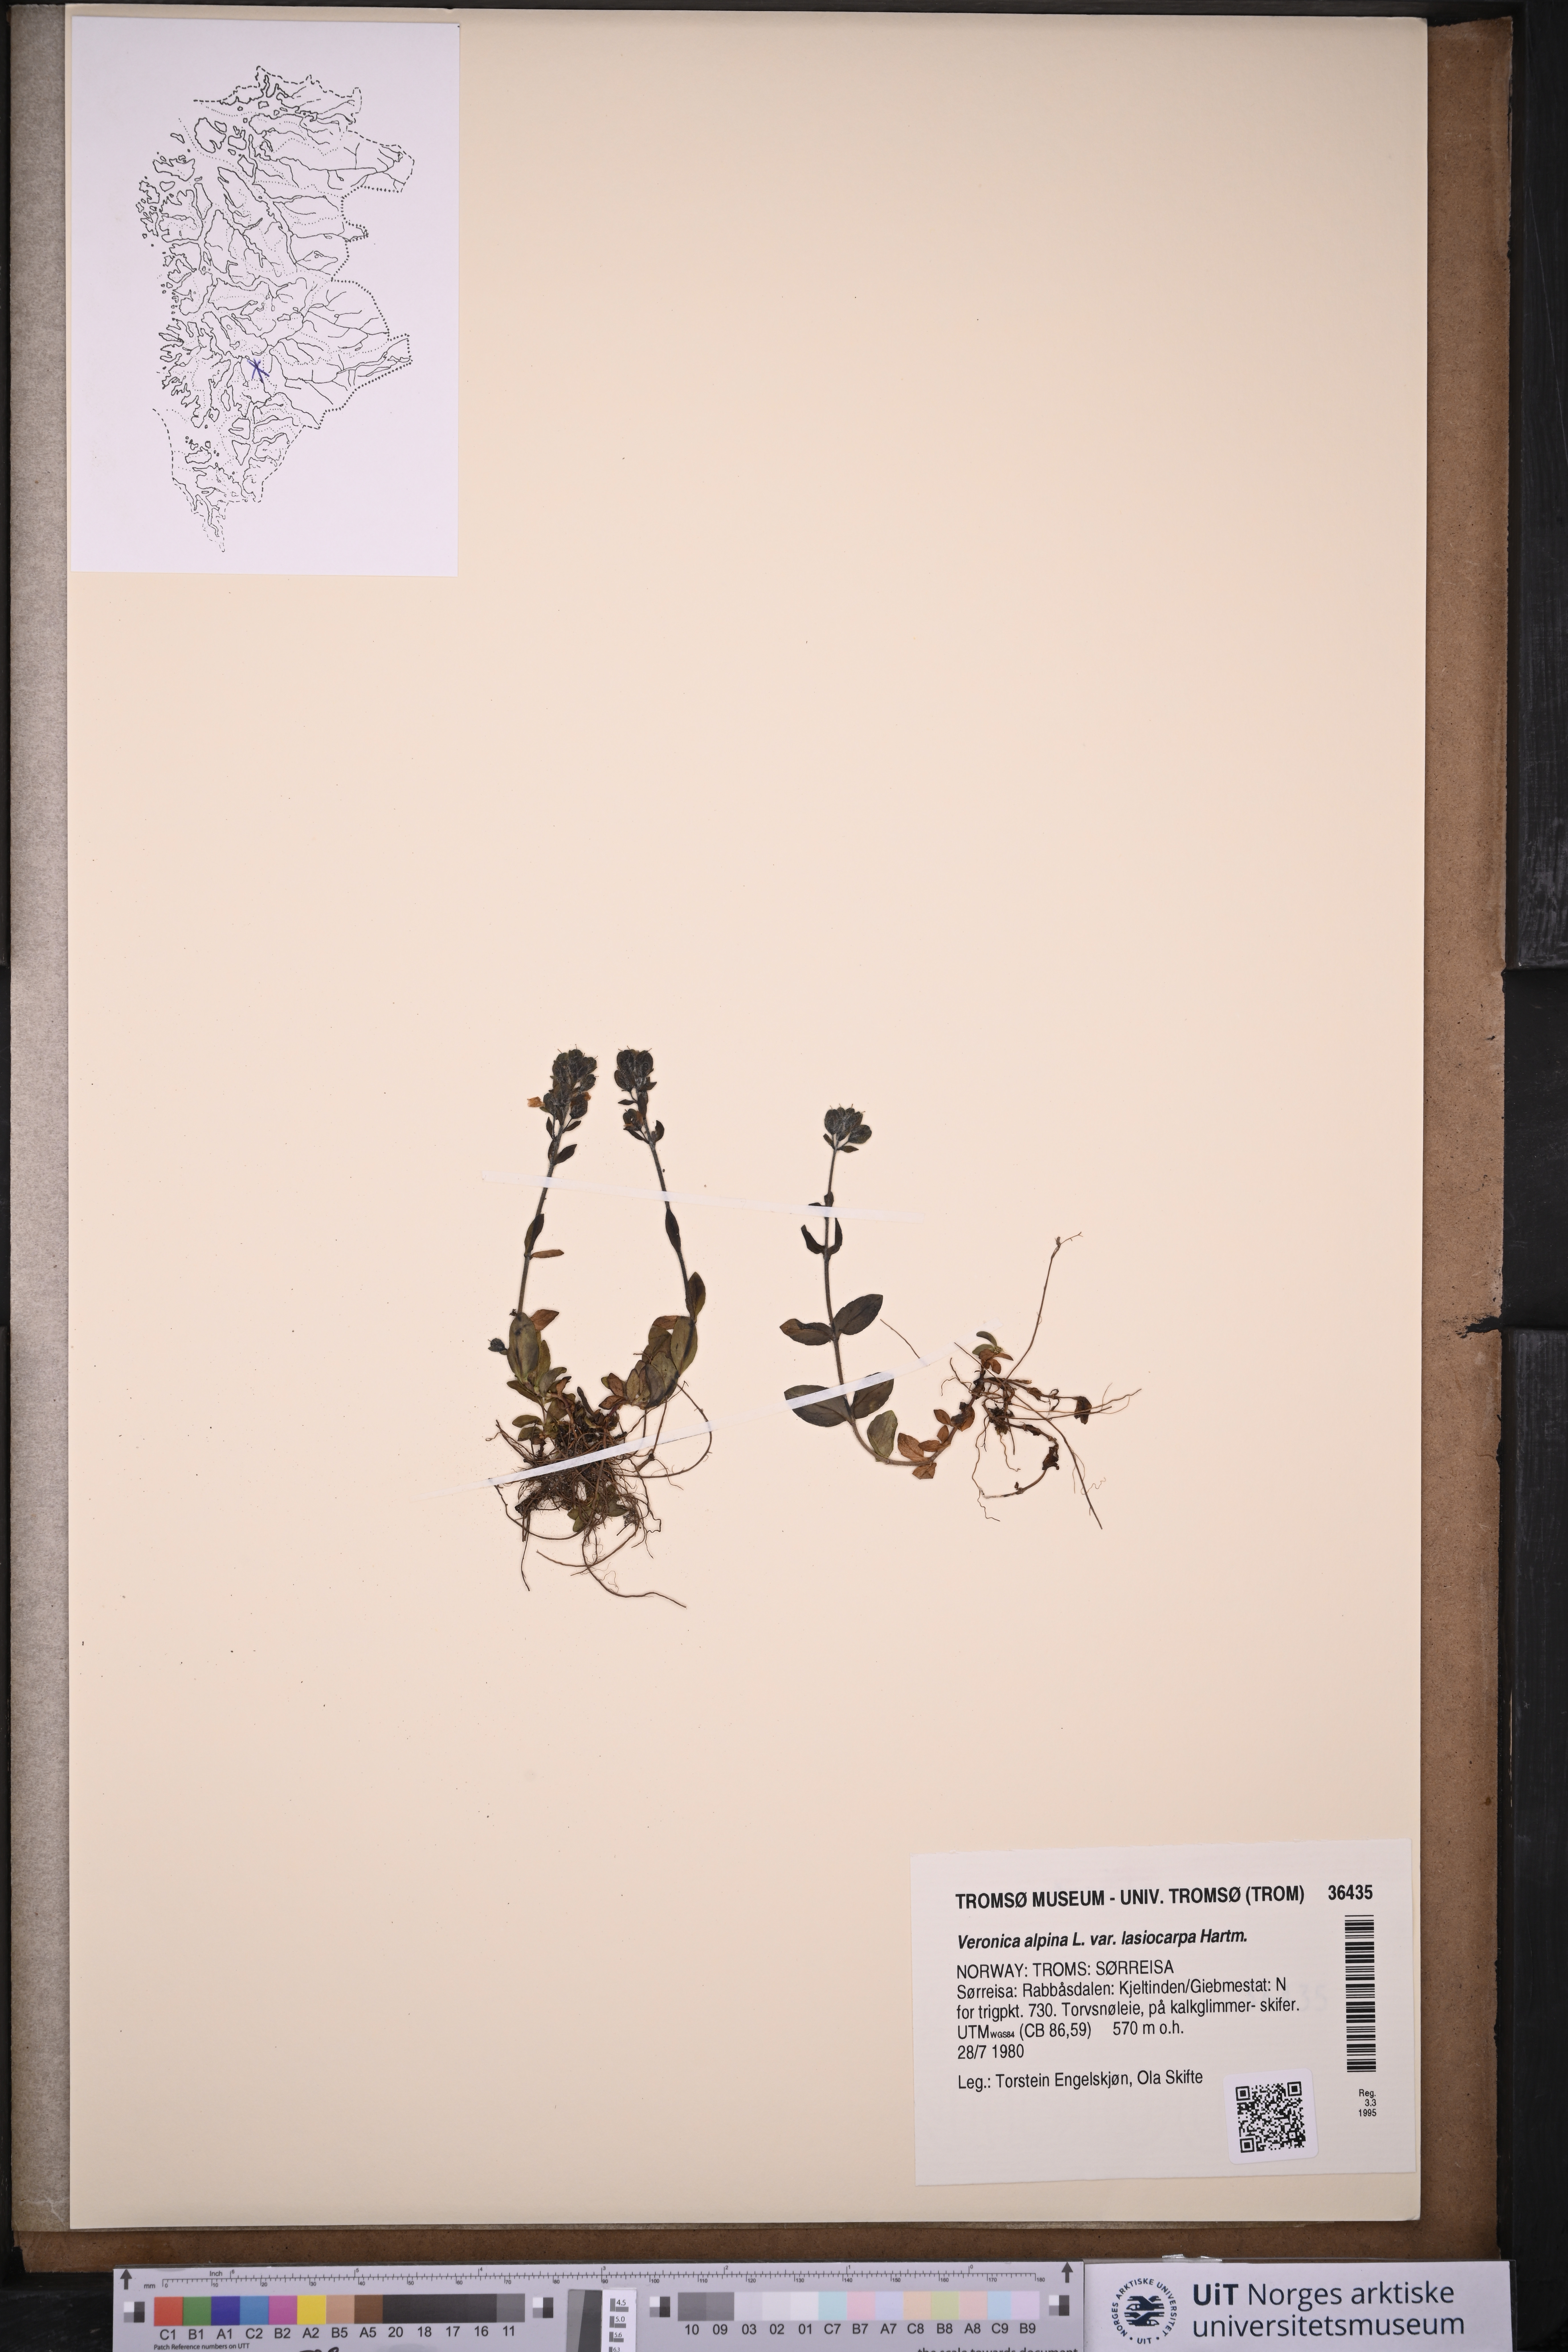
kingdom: Plantae
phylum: Tracheophyta
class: Magnoliopsida
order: Lamiales
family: Plantaginaceae
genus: Veronica
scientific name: Veronica alpina
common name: Alpine speedwell
